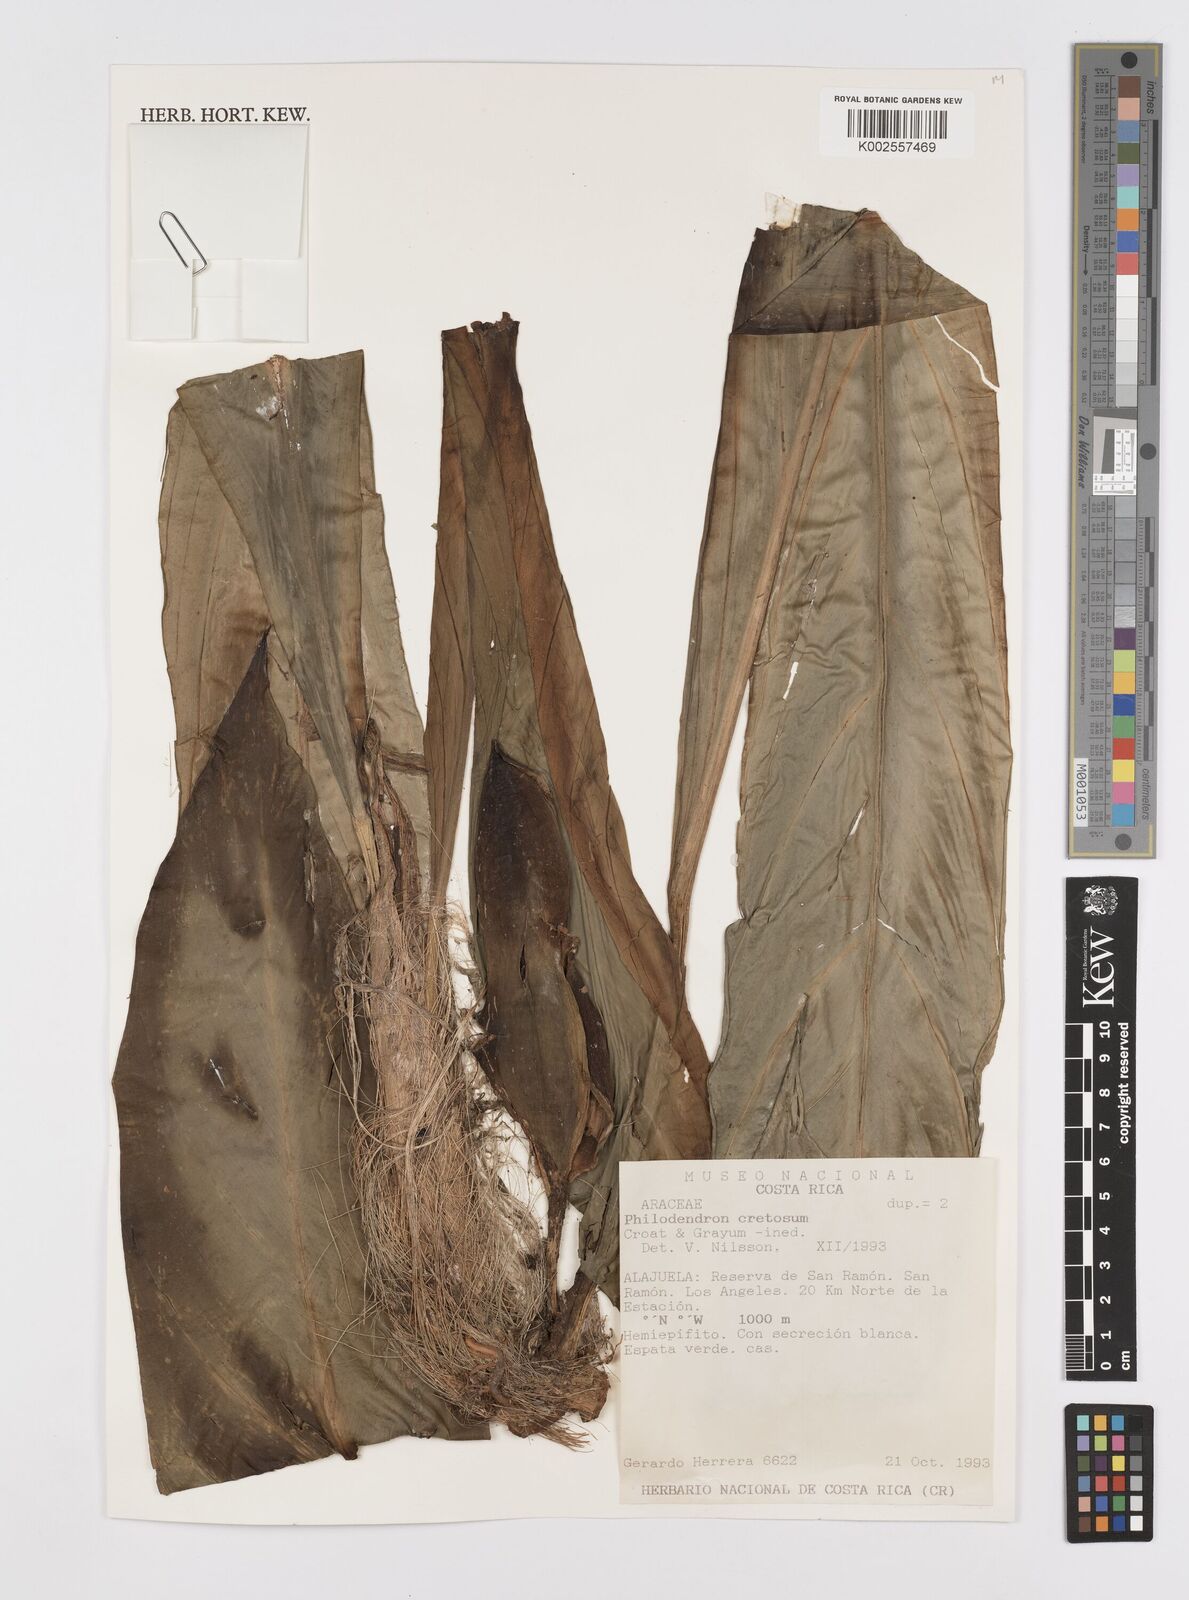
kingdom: Plantae
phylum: Tracheophyta
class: Liliopsida
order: Alismatales
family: Araceae
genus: Philodendron
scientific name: Philodendron cretosum
